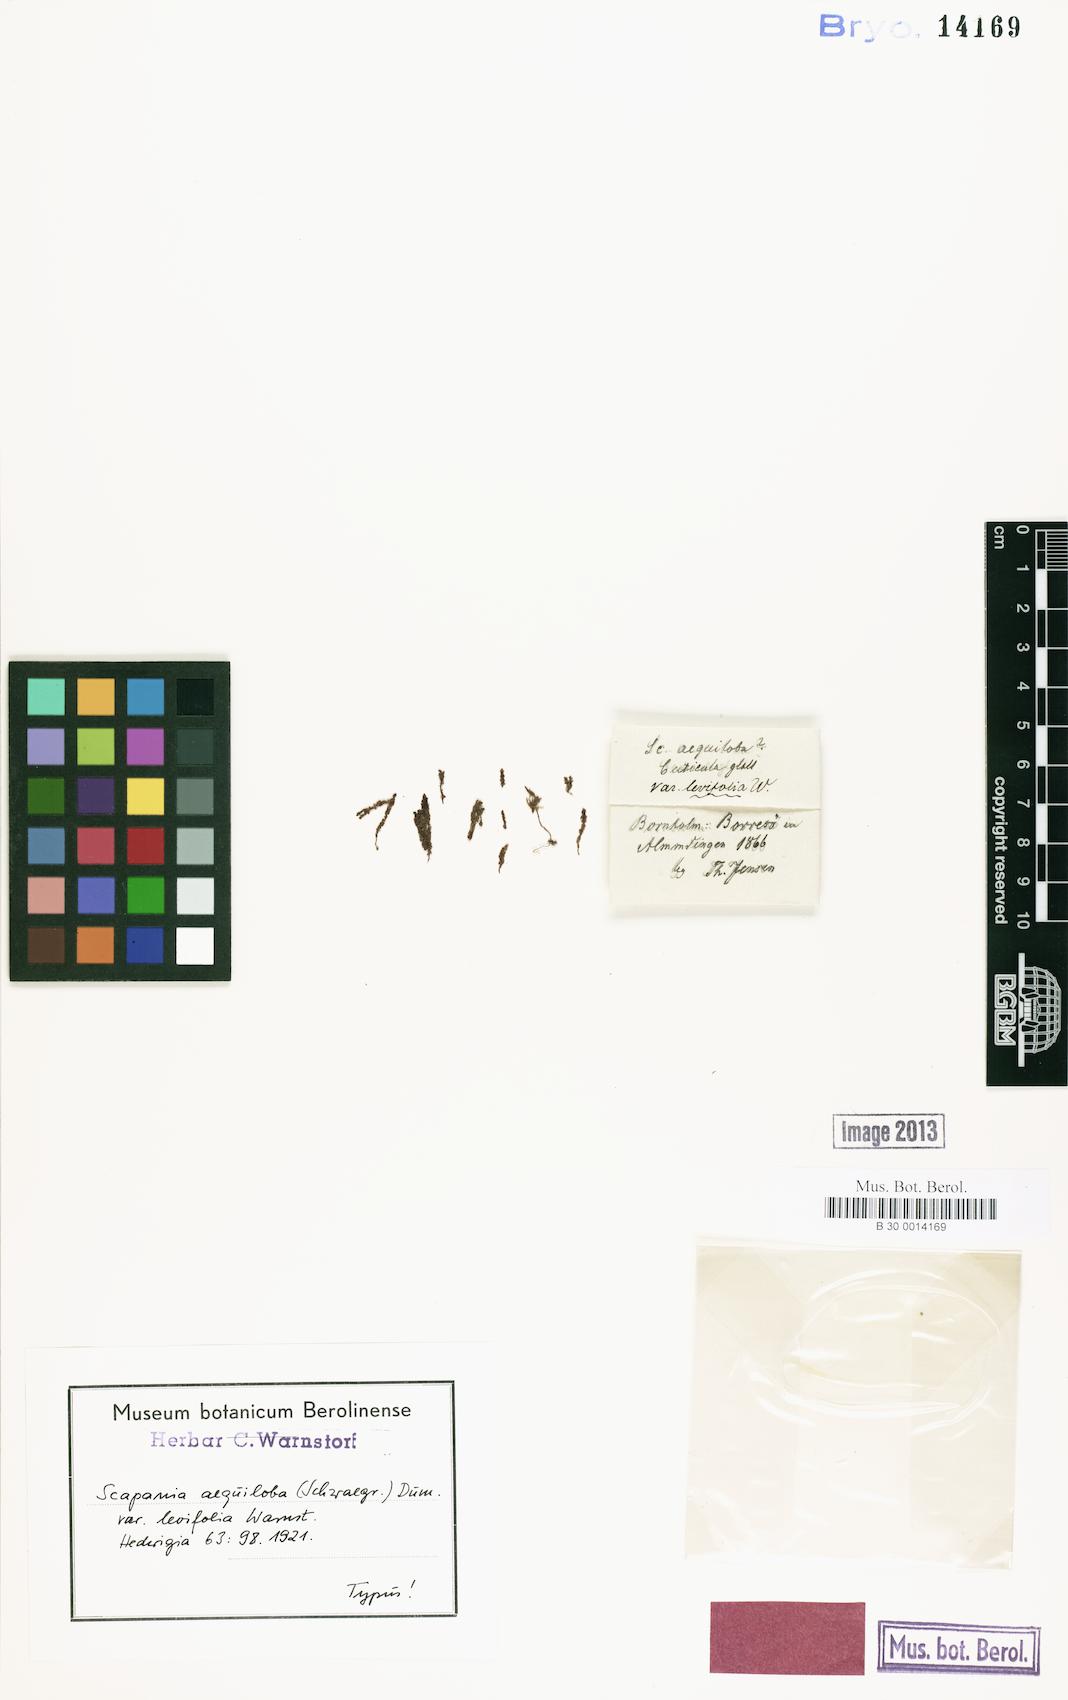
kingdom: Plantae
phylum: Marchantiophyta
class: Jungermanniopsida
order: Jungermanniales
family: Scapaniaceae
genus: Scapania
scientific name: Scapania aequiloba
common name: Lesser rough earwort
